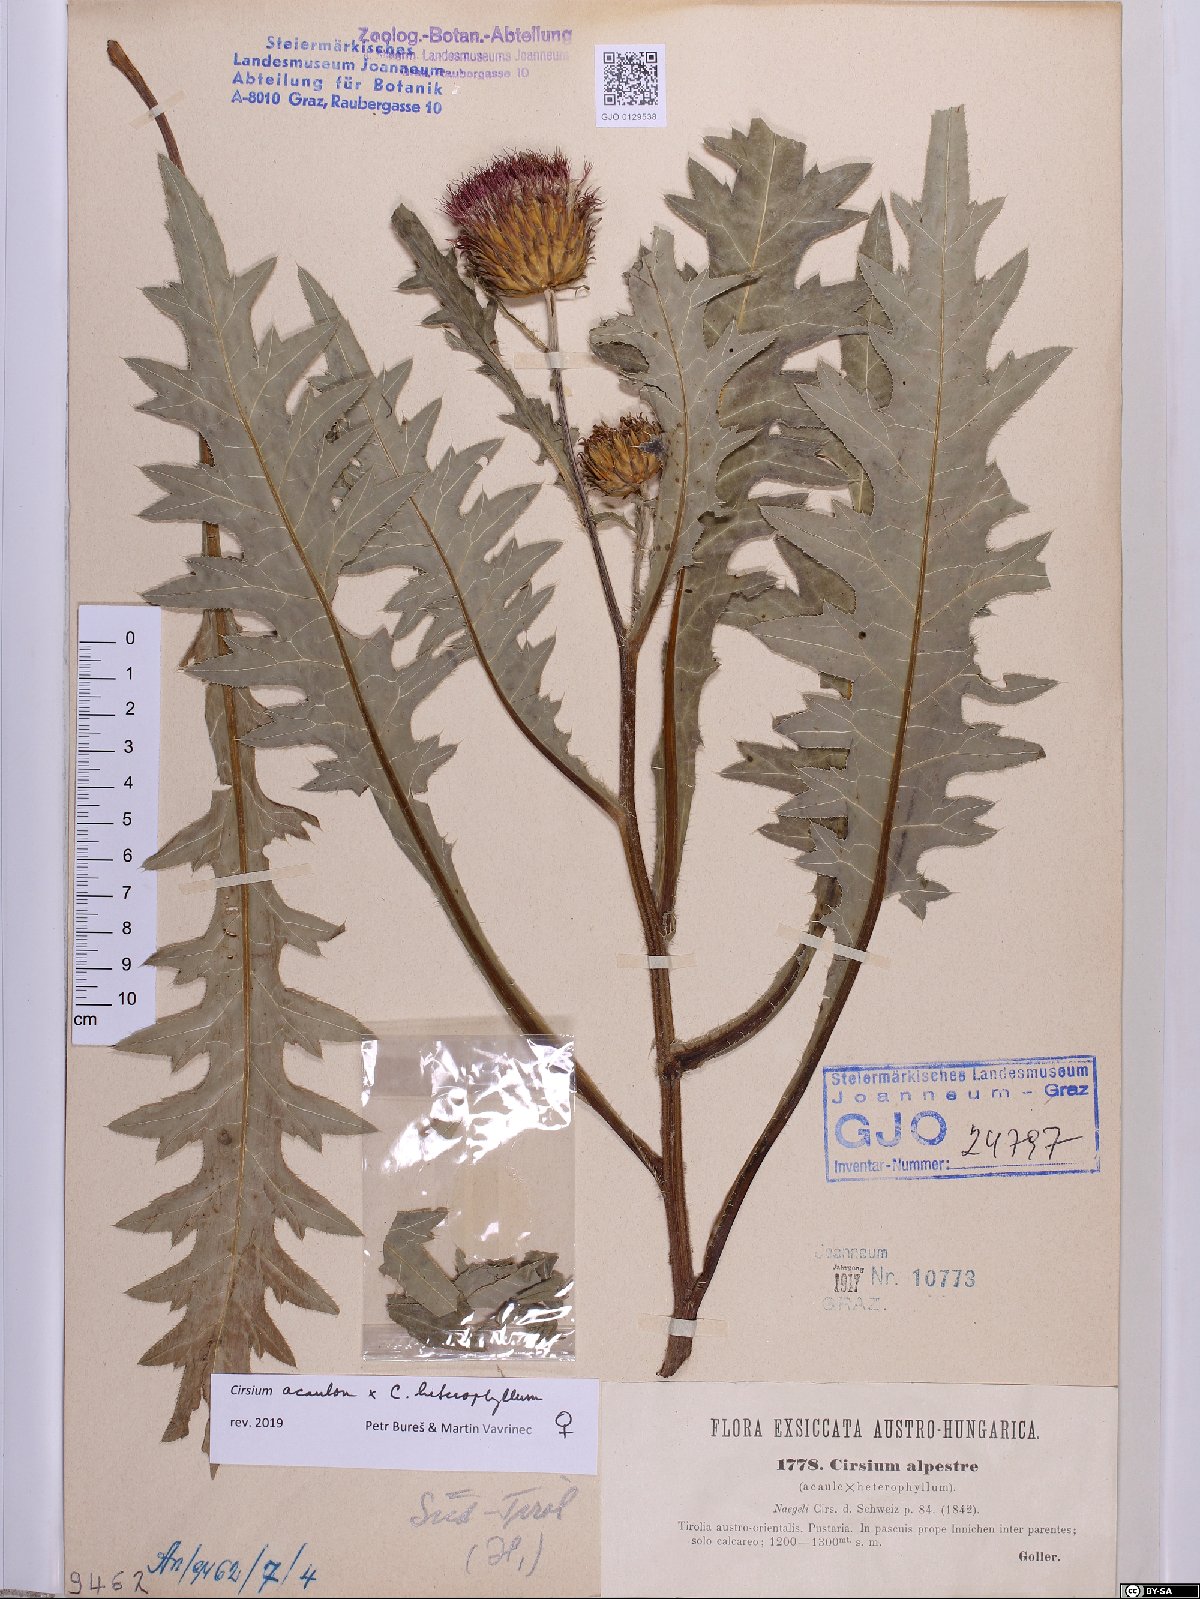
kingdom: Plantae
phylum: Tracheophyta
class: Magnoliopsida
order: Asterales
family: Asteraceae
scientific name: Asteraceae
